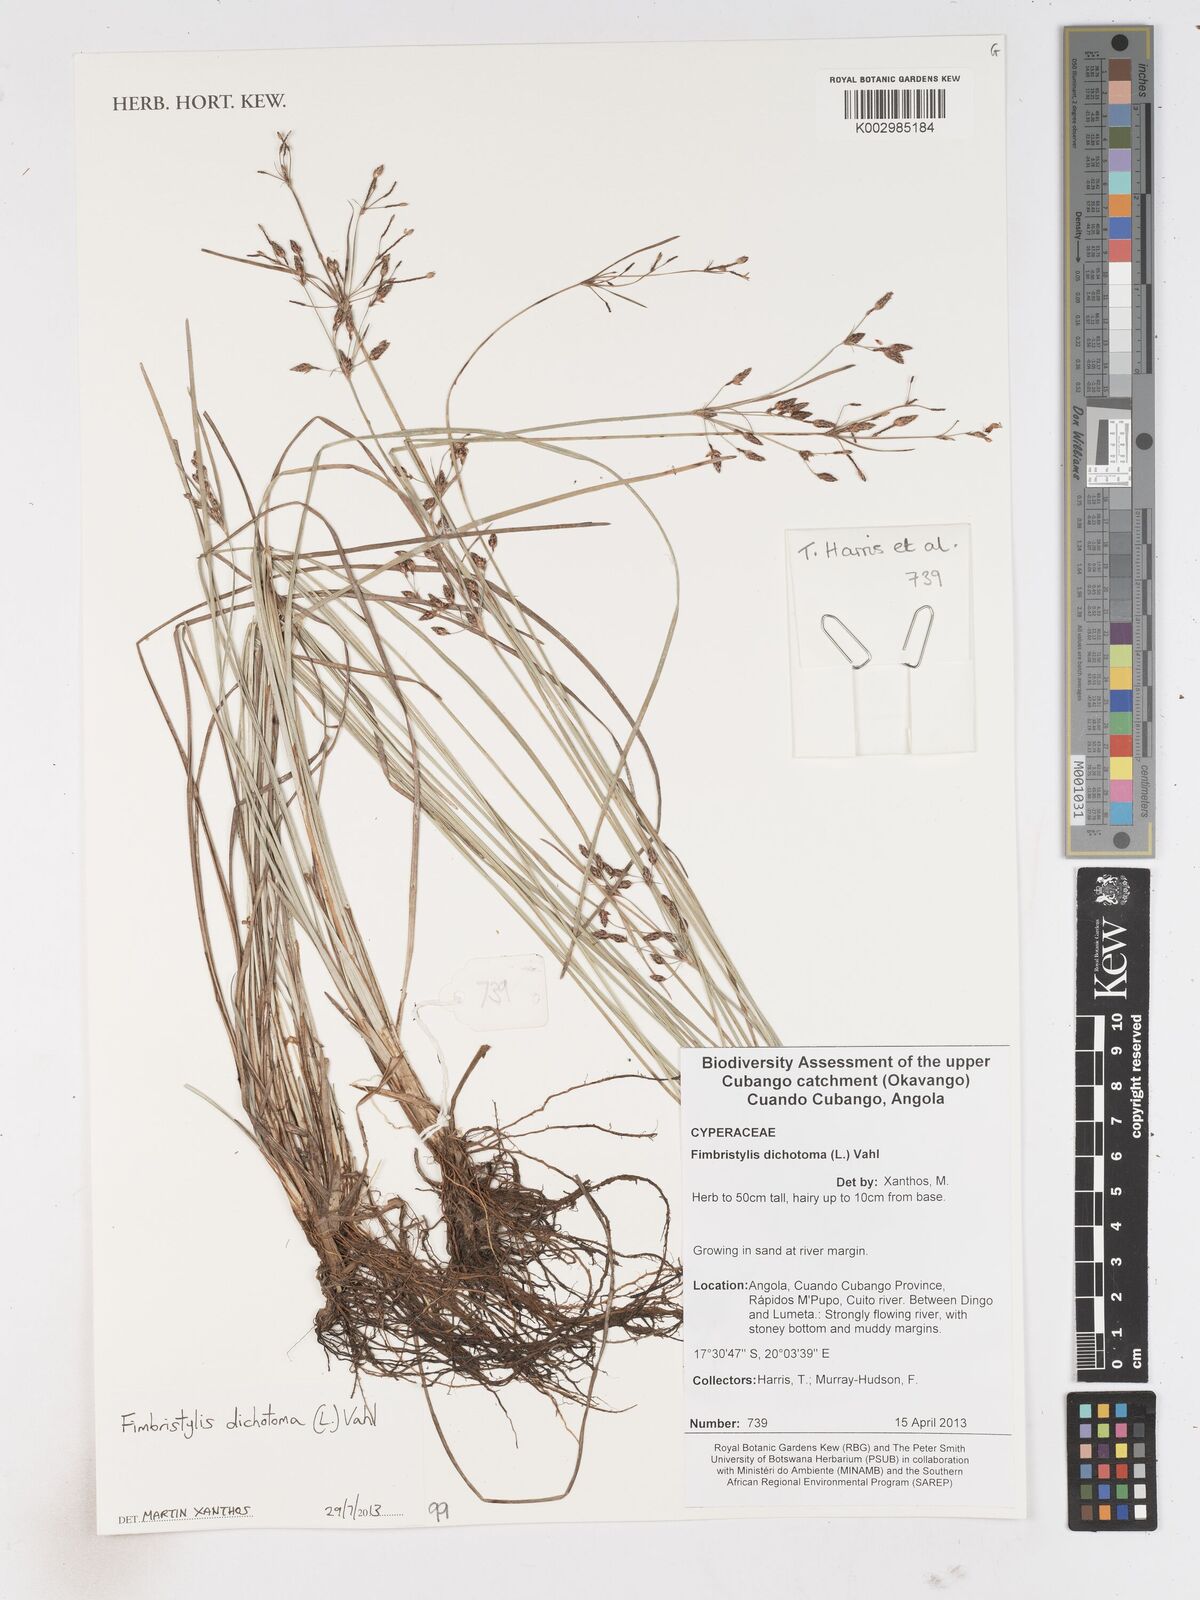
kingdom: Plantae
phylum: Tracheophyta
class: Liliopsida
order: Poales
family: Cyperaceae
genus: Fimbristylis
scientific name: Fimbristylis dichotoma
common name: Forked fimbry
